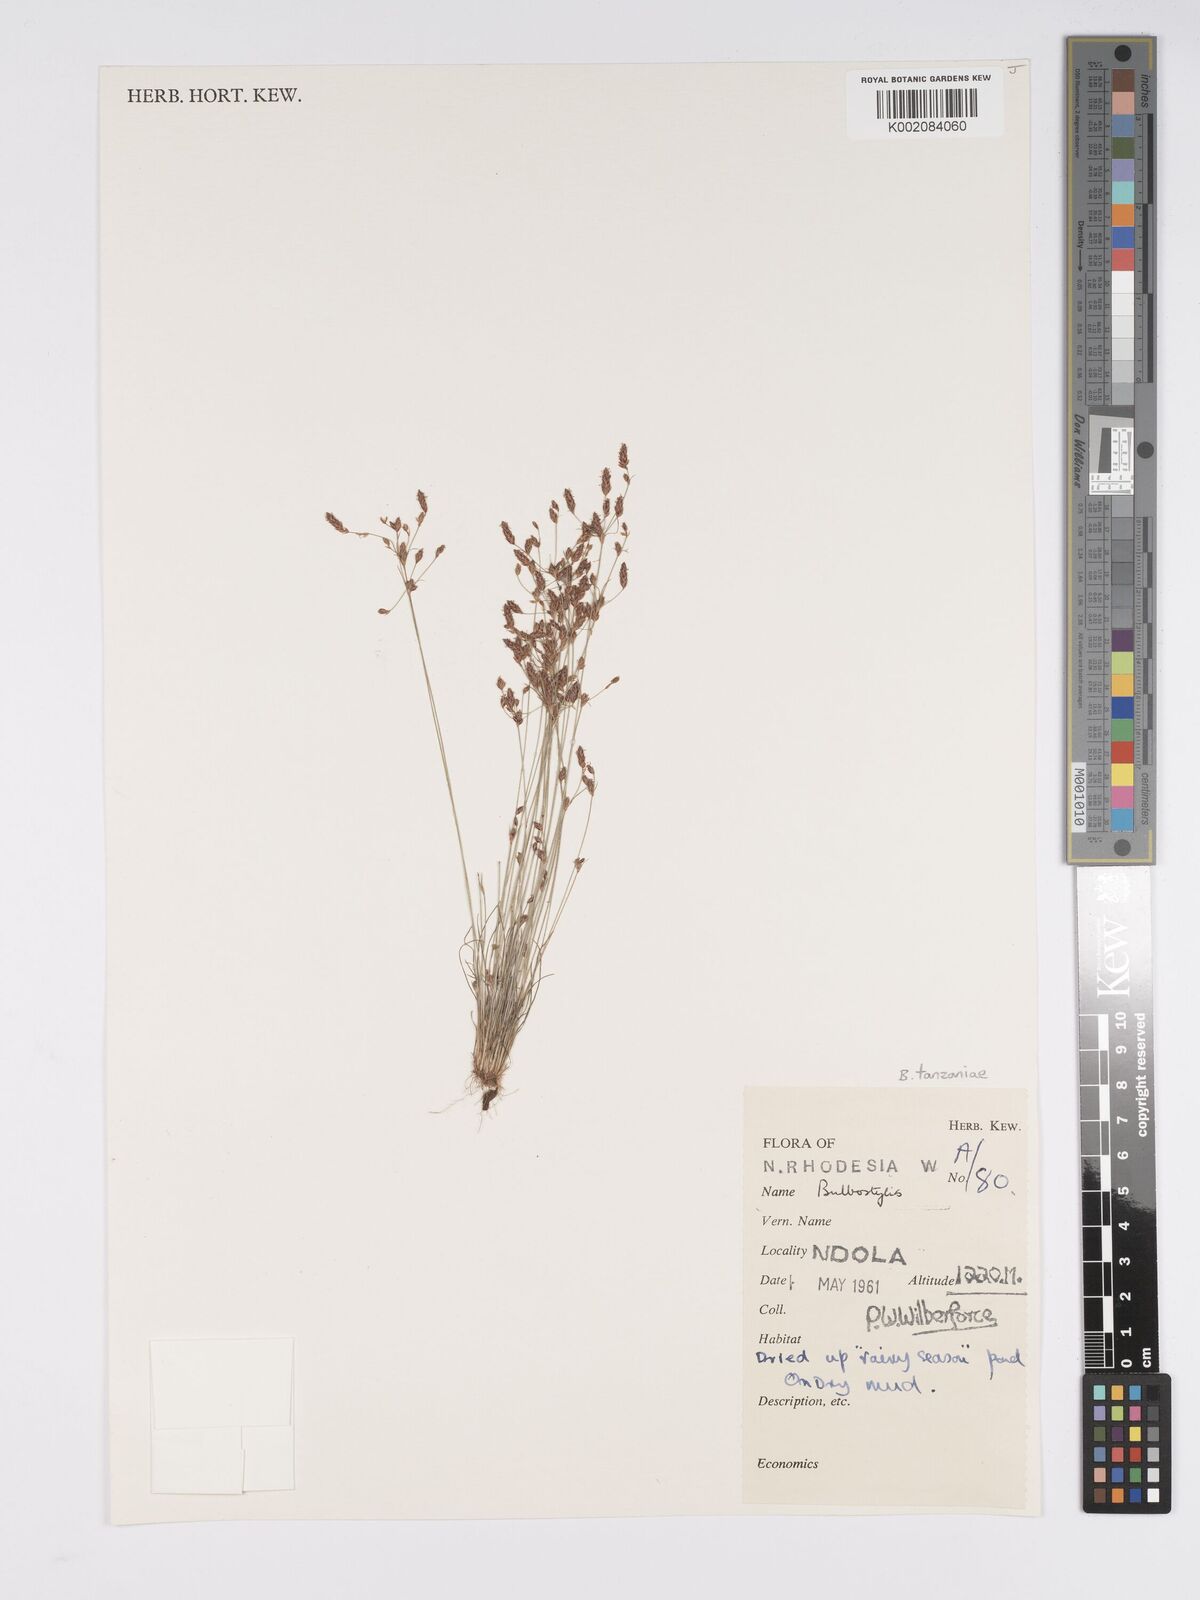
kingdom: Plantae
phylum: Tracheophyta
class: Liliopsida
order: Poales
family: Cyperaceae
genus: Bulbostylis
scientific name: Bulbostylis tanzaniae
